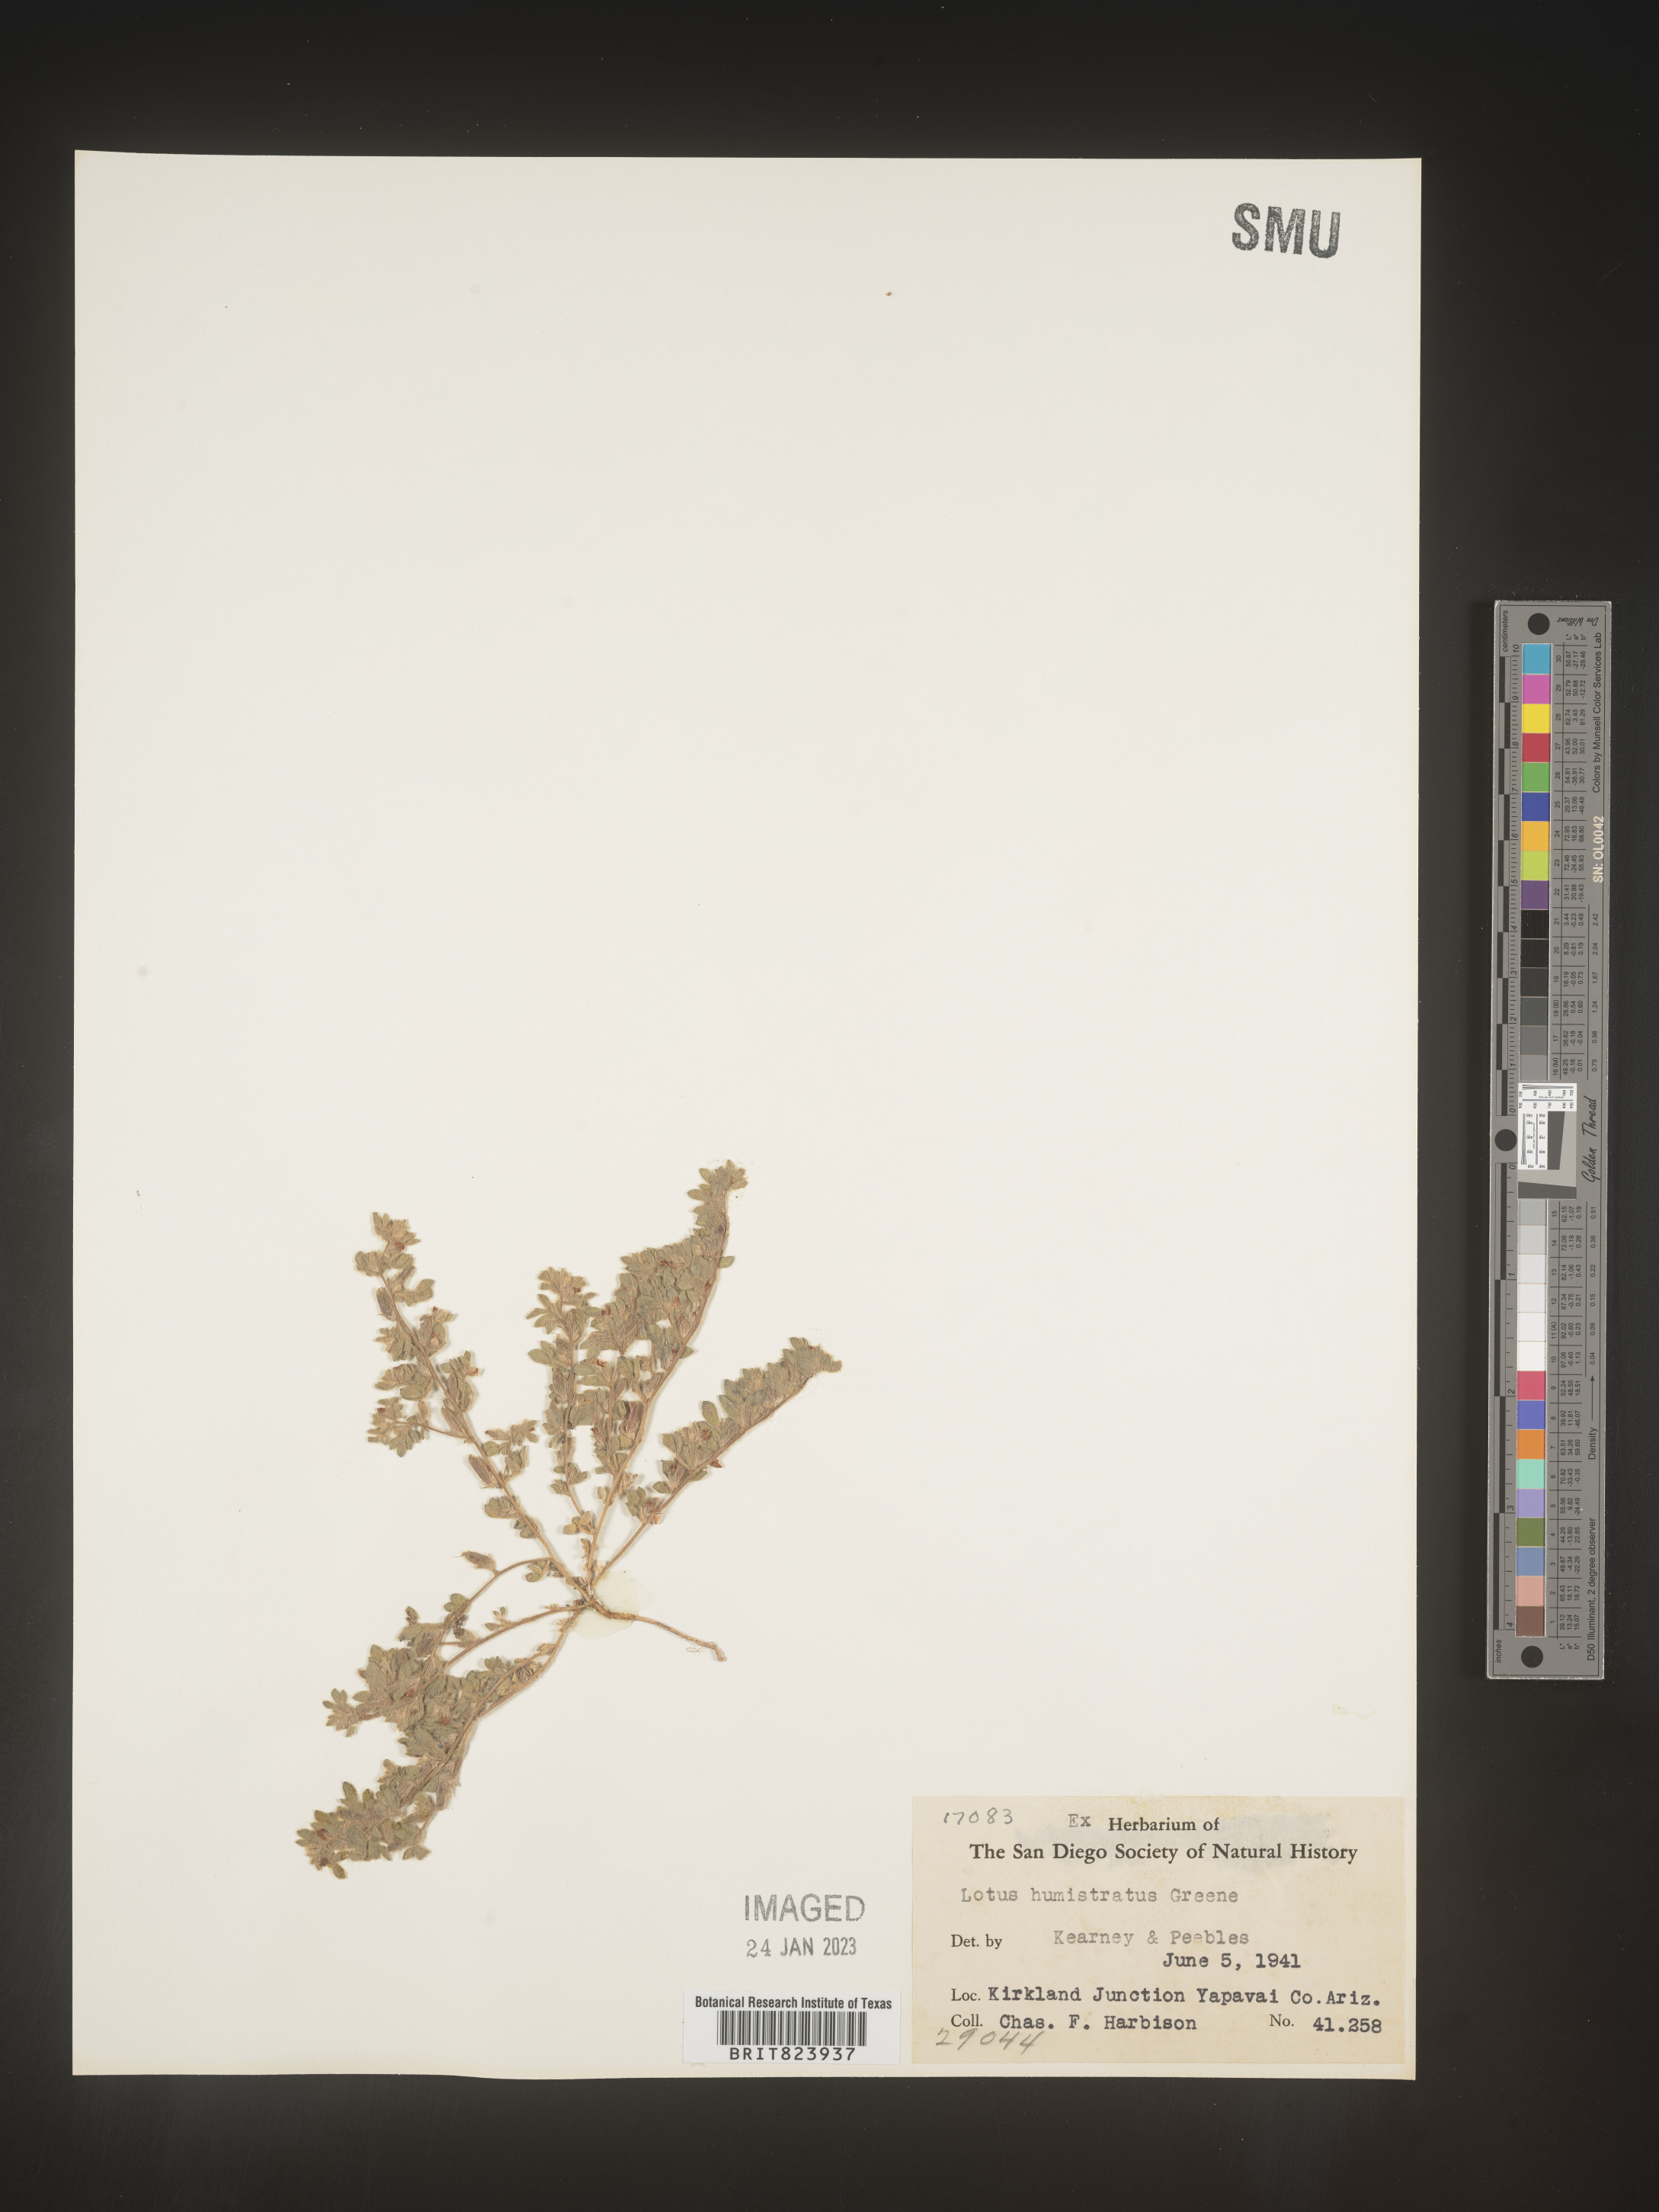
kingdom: Plantae
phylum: Tracheophyta
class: Magnoliopsida
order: Fabales
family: Fabaceae
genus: Acmispon
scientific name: Acmispon brachycarpus
